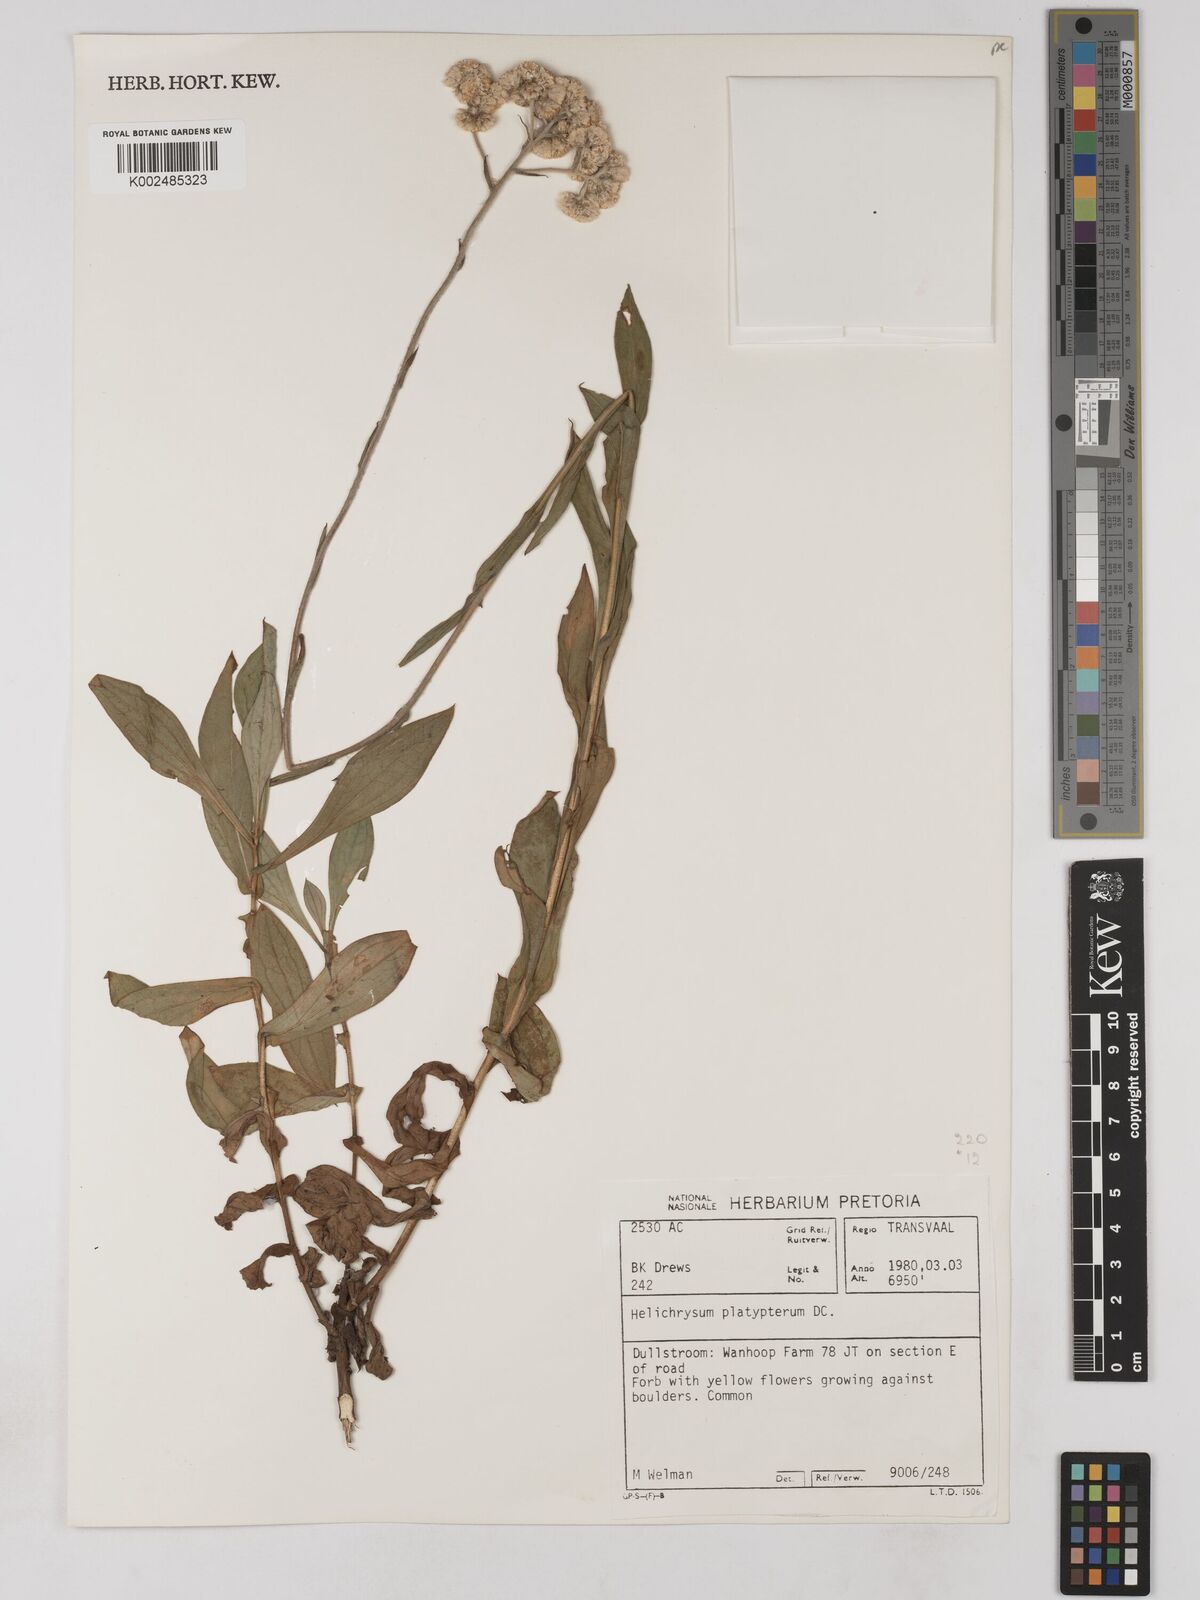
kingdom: Plantae
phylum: Tracheophyta
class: Magnoliopsida
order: Asterales
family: Asteraceae
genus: Helichrysum
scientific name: Helichrysum platypterum
